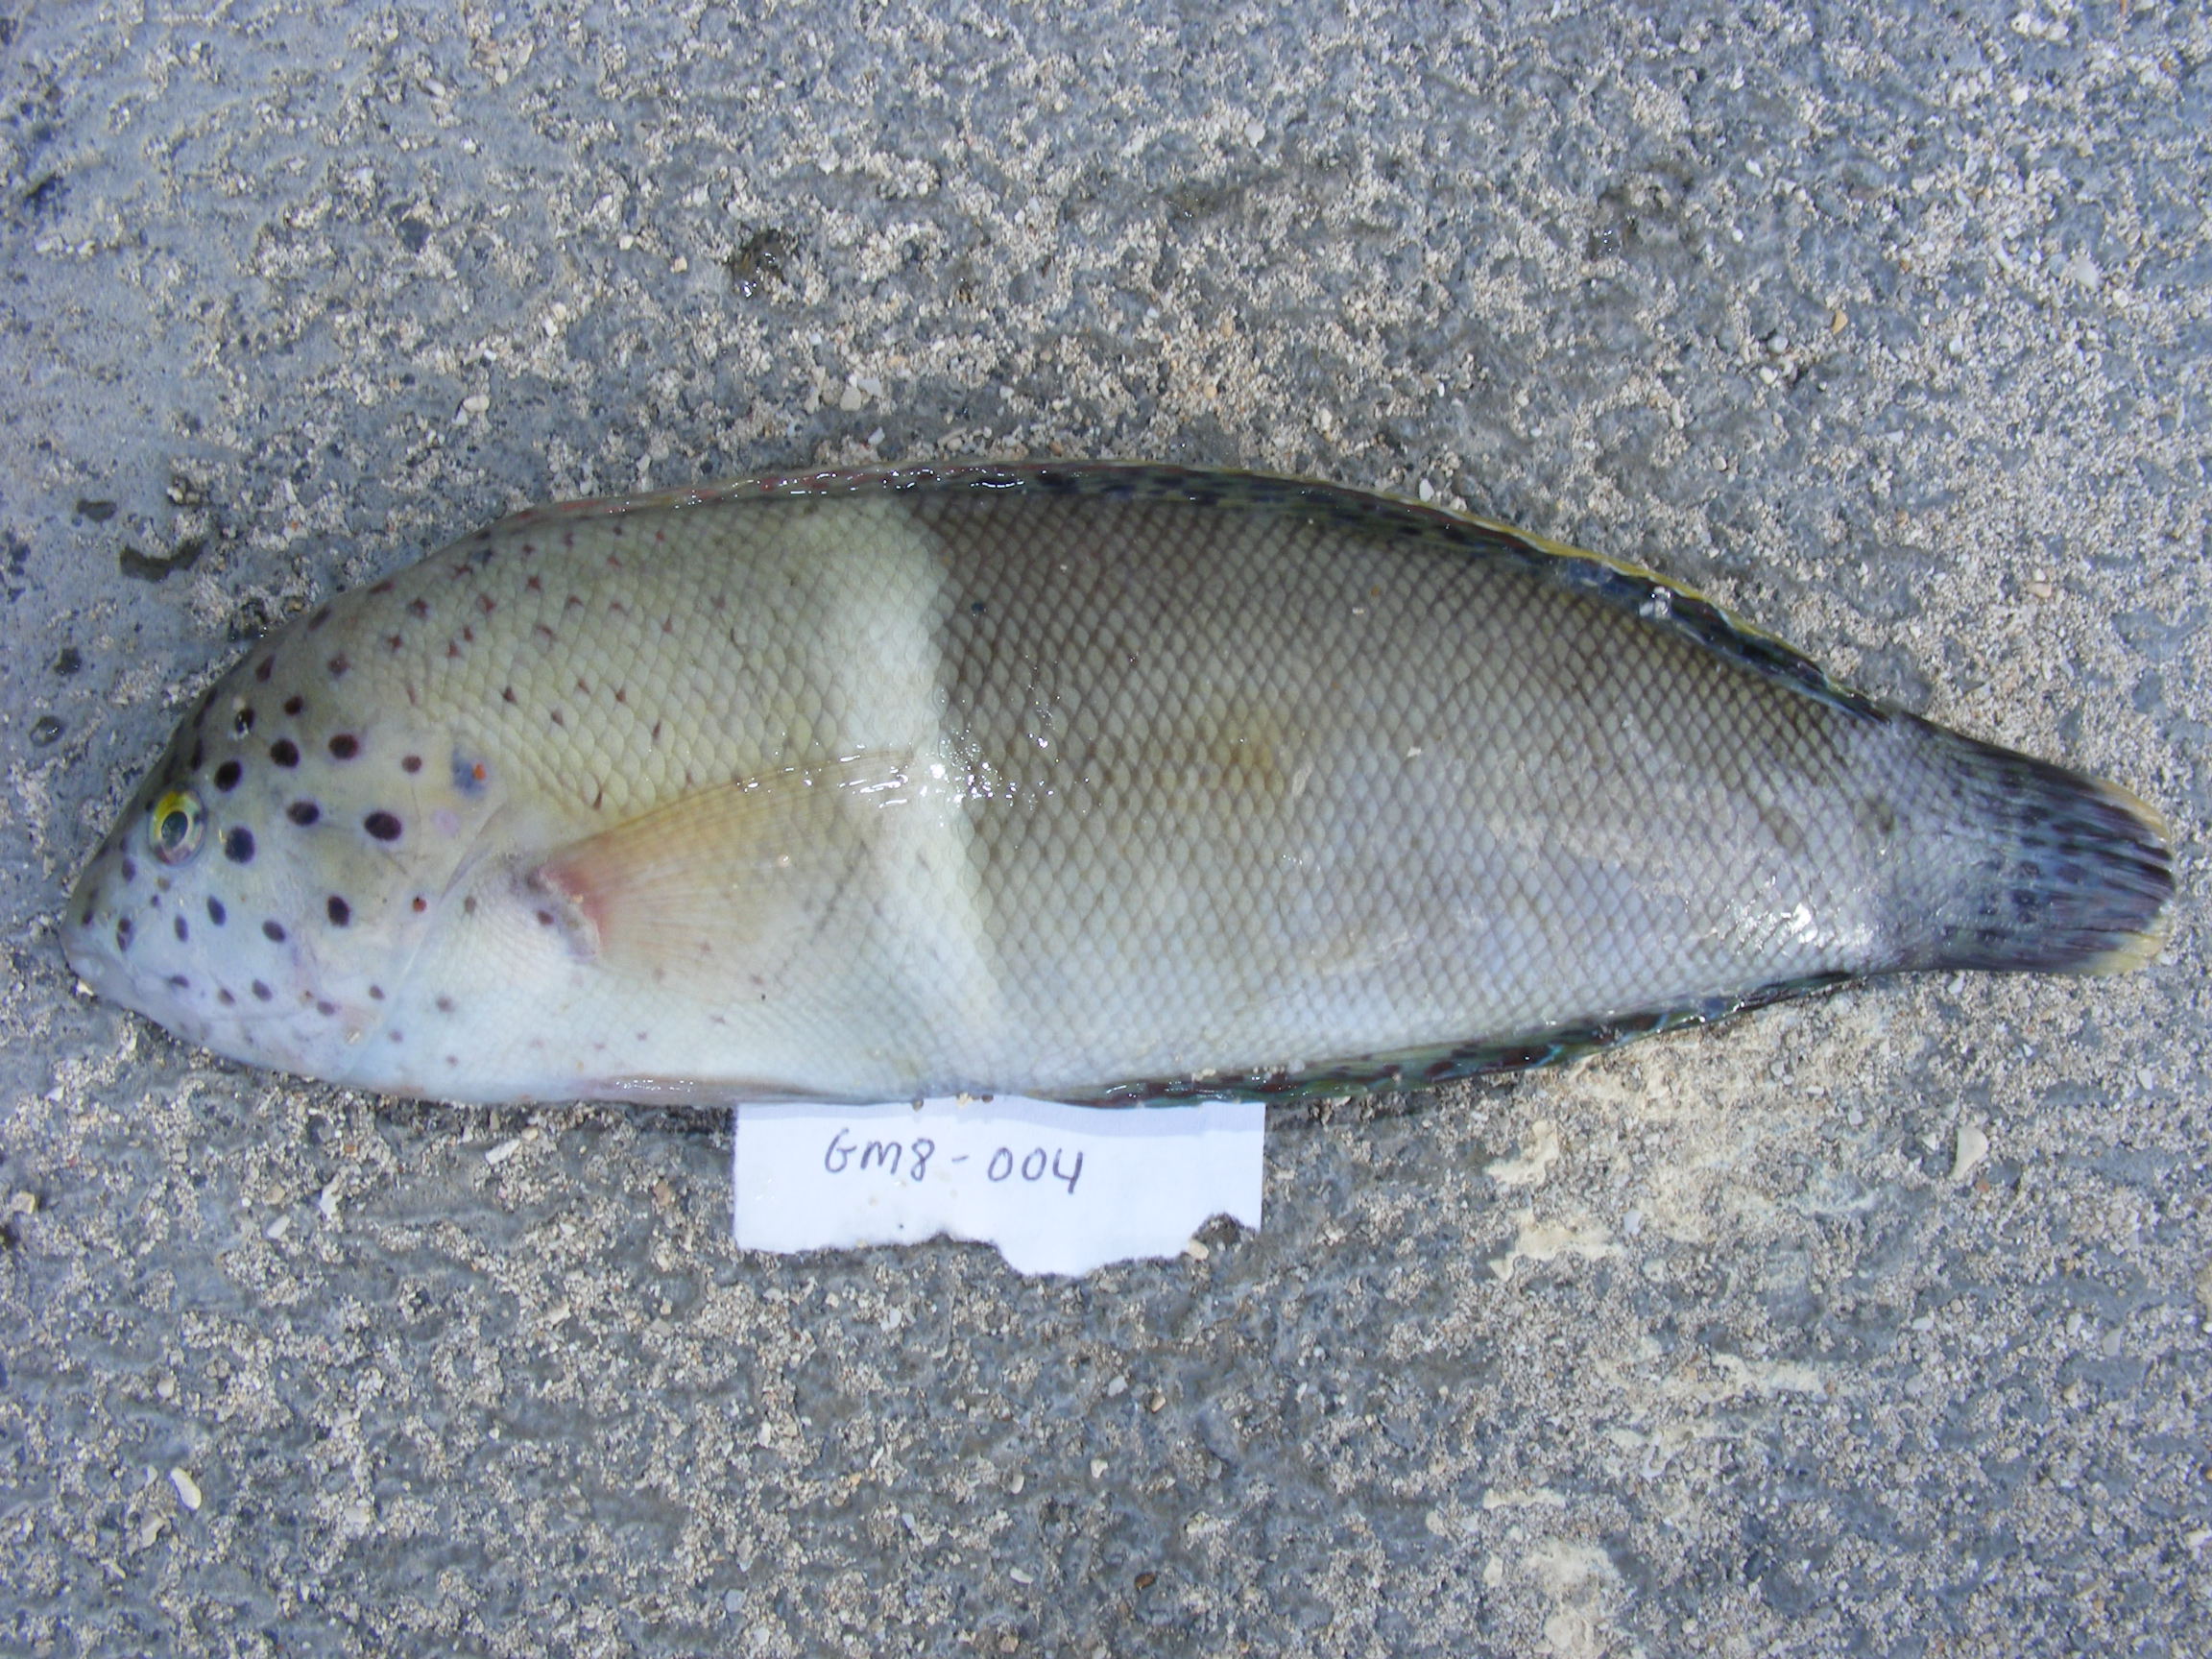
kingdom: Animalia
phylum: Chordata
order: Perciformes
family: Labridae
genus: Coris
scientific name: Coris aygula
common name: Clown coris
